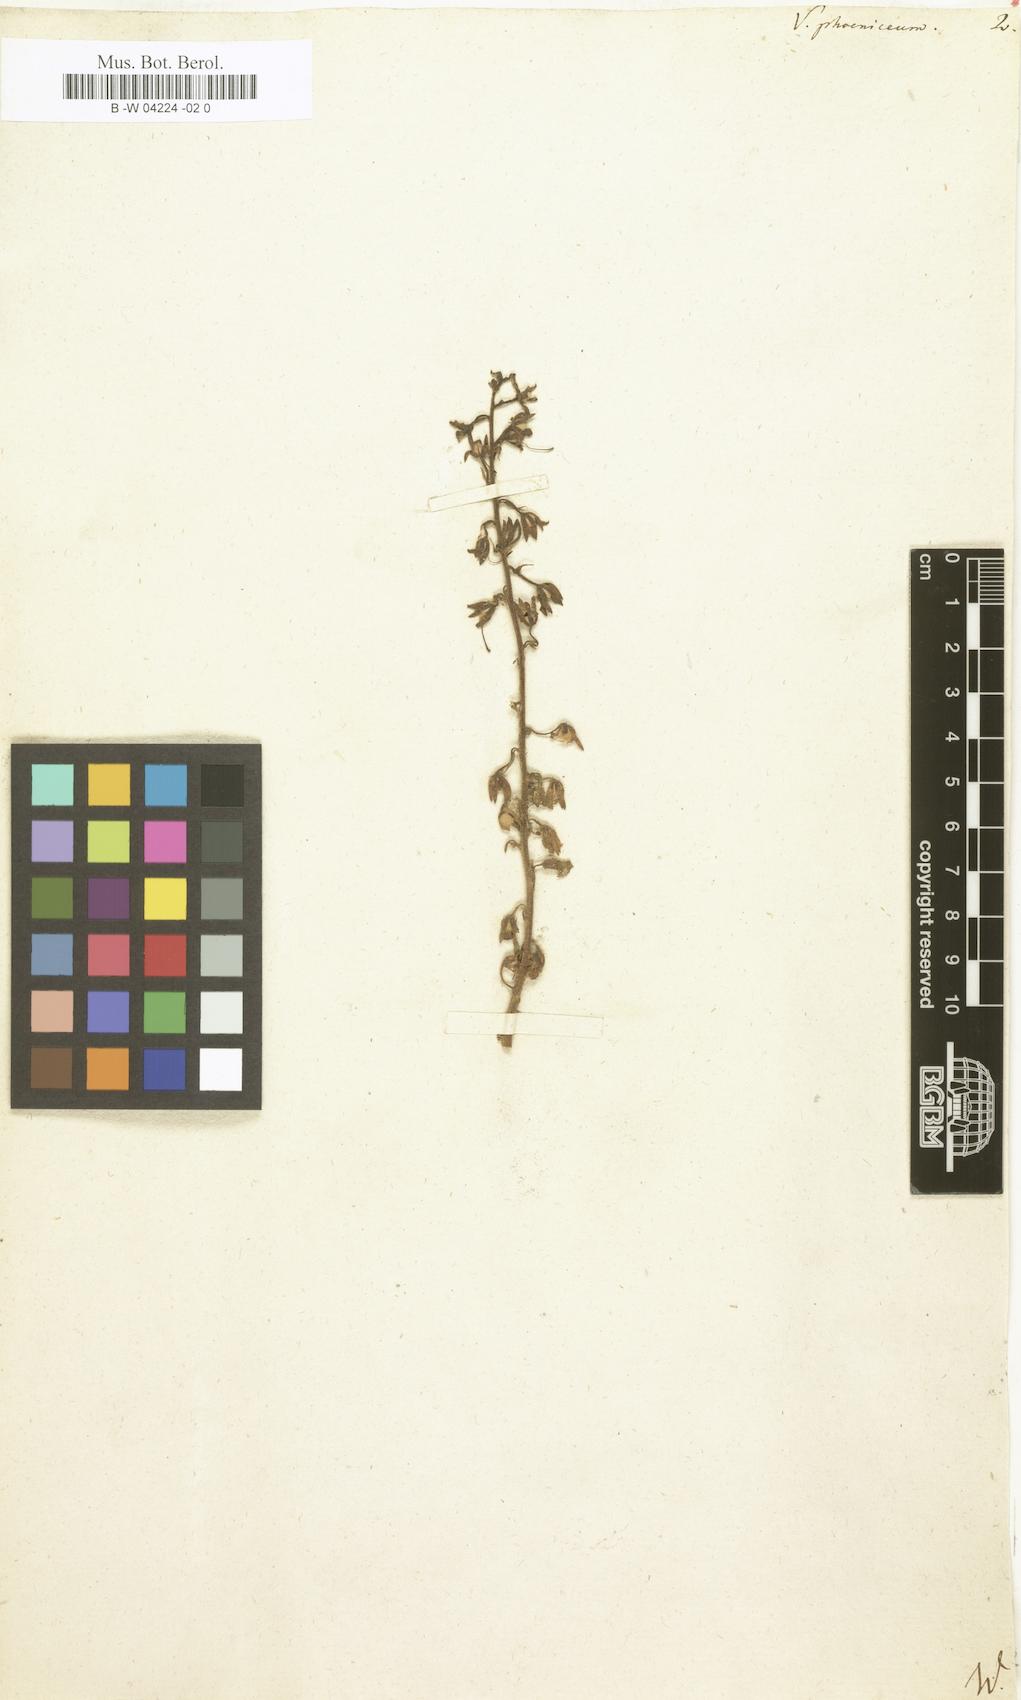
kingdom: Plantae
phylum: Tracheophyta
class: Magnoliopsida
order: Lamiales
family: Scrophulariaceae
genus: Verbascum
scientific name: Verbascum phoeniceum
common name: Purple mullein
